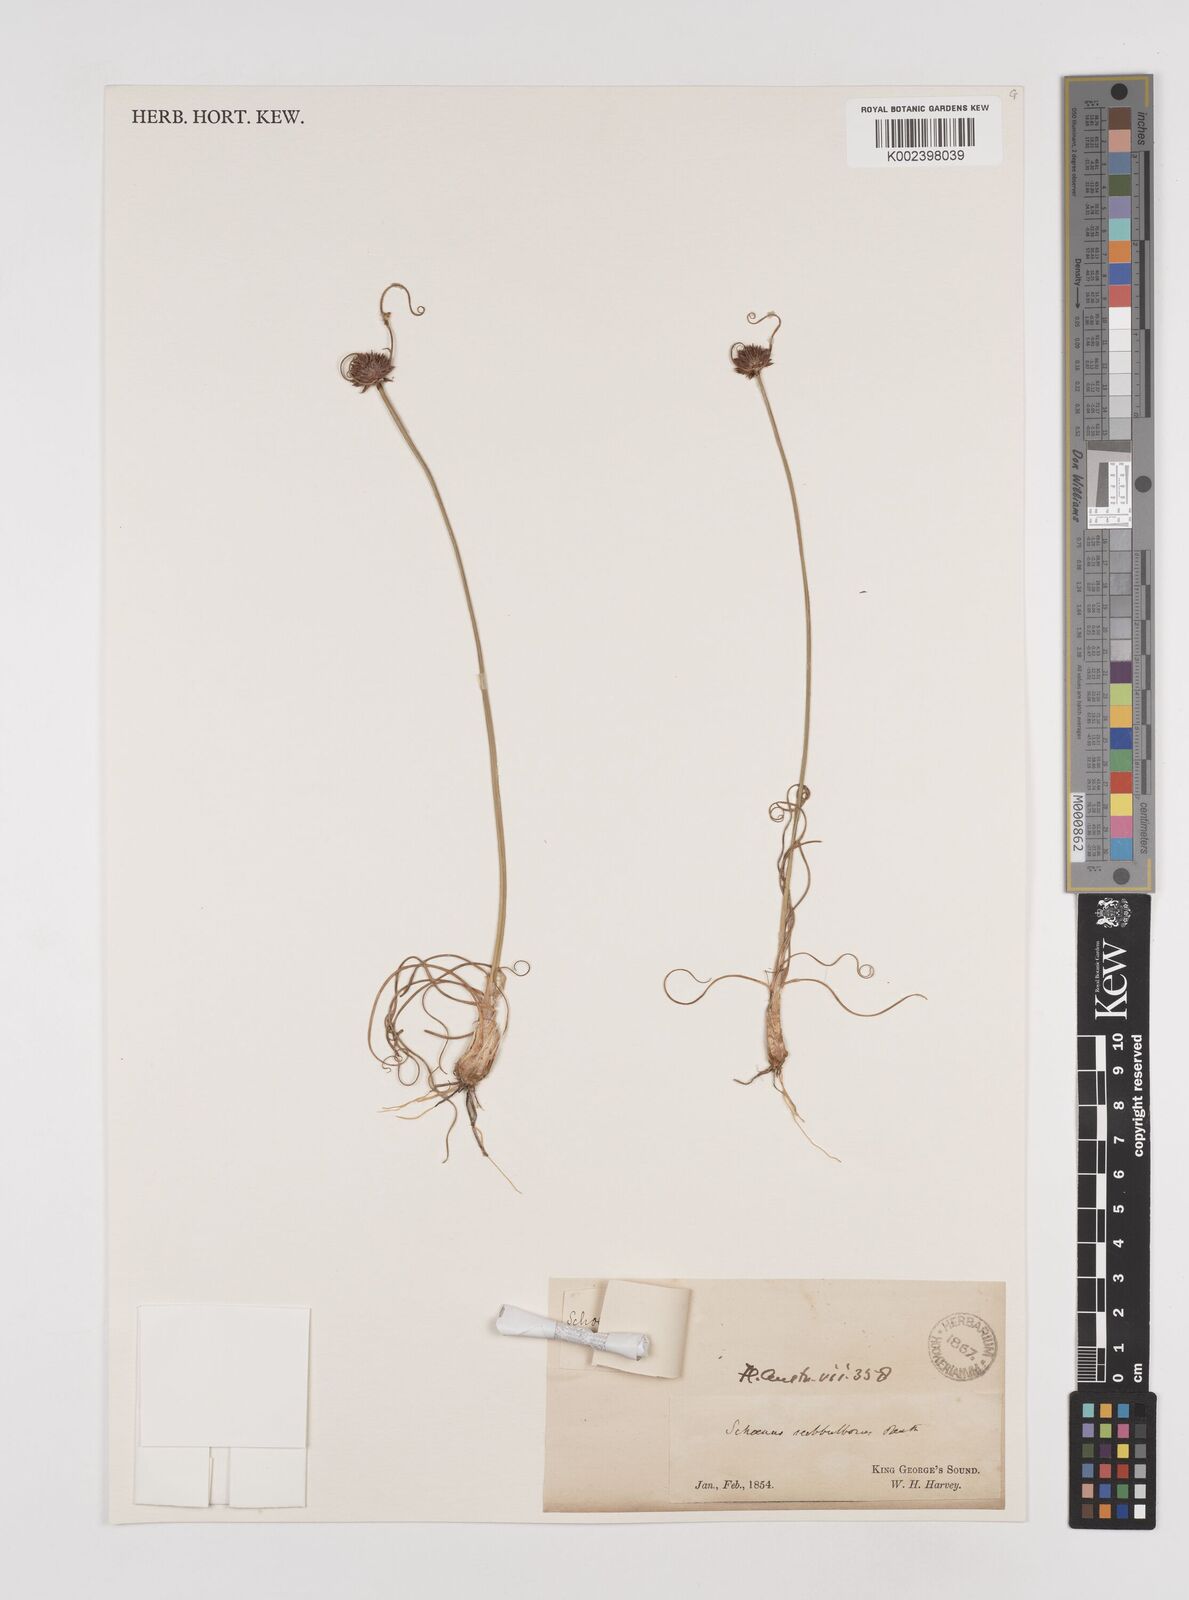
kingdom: Plantae
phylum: Tracheophyta
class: Liliopsida
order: Poales
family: Cyperaceae
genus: Cyperus
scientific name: Cyperus brevifolius
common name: Globe kyllinga
